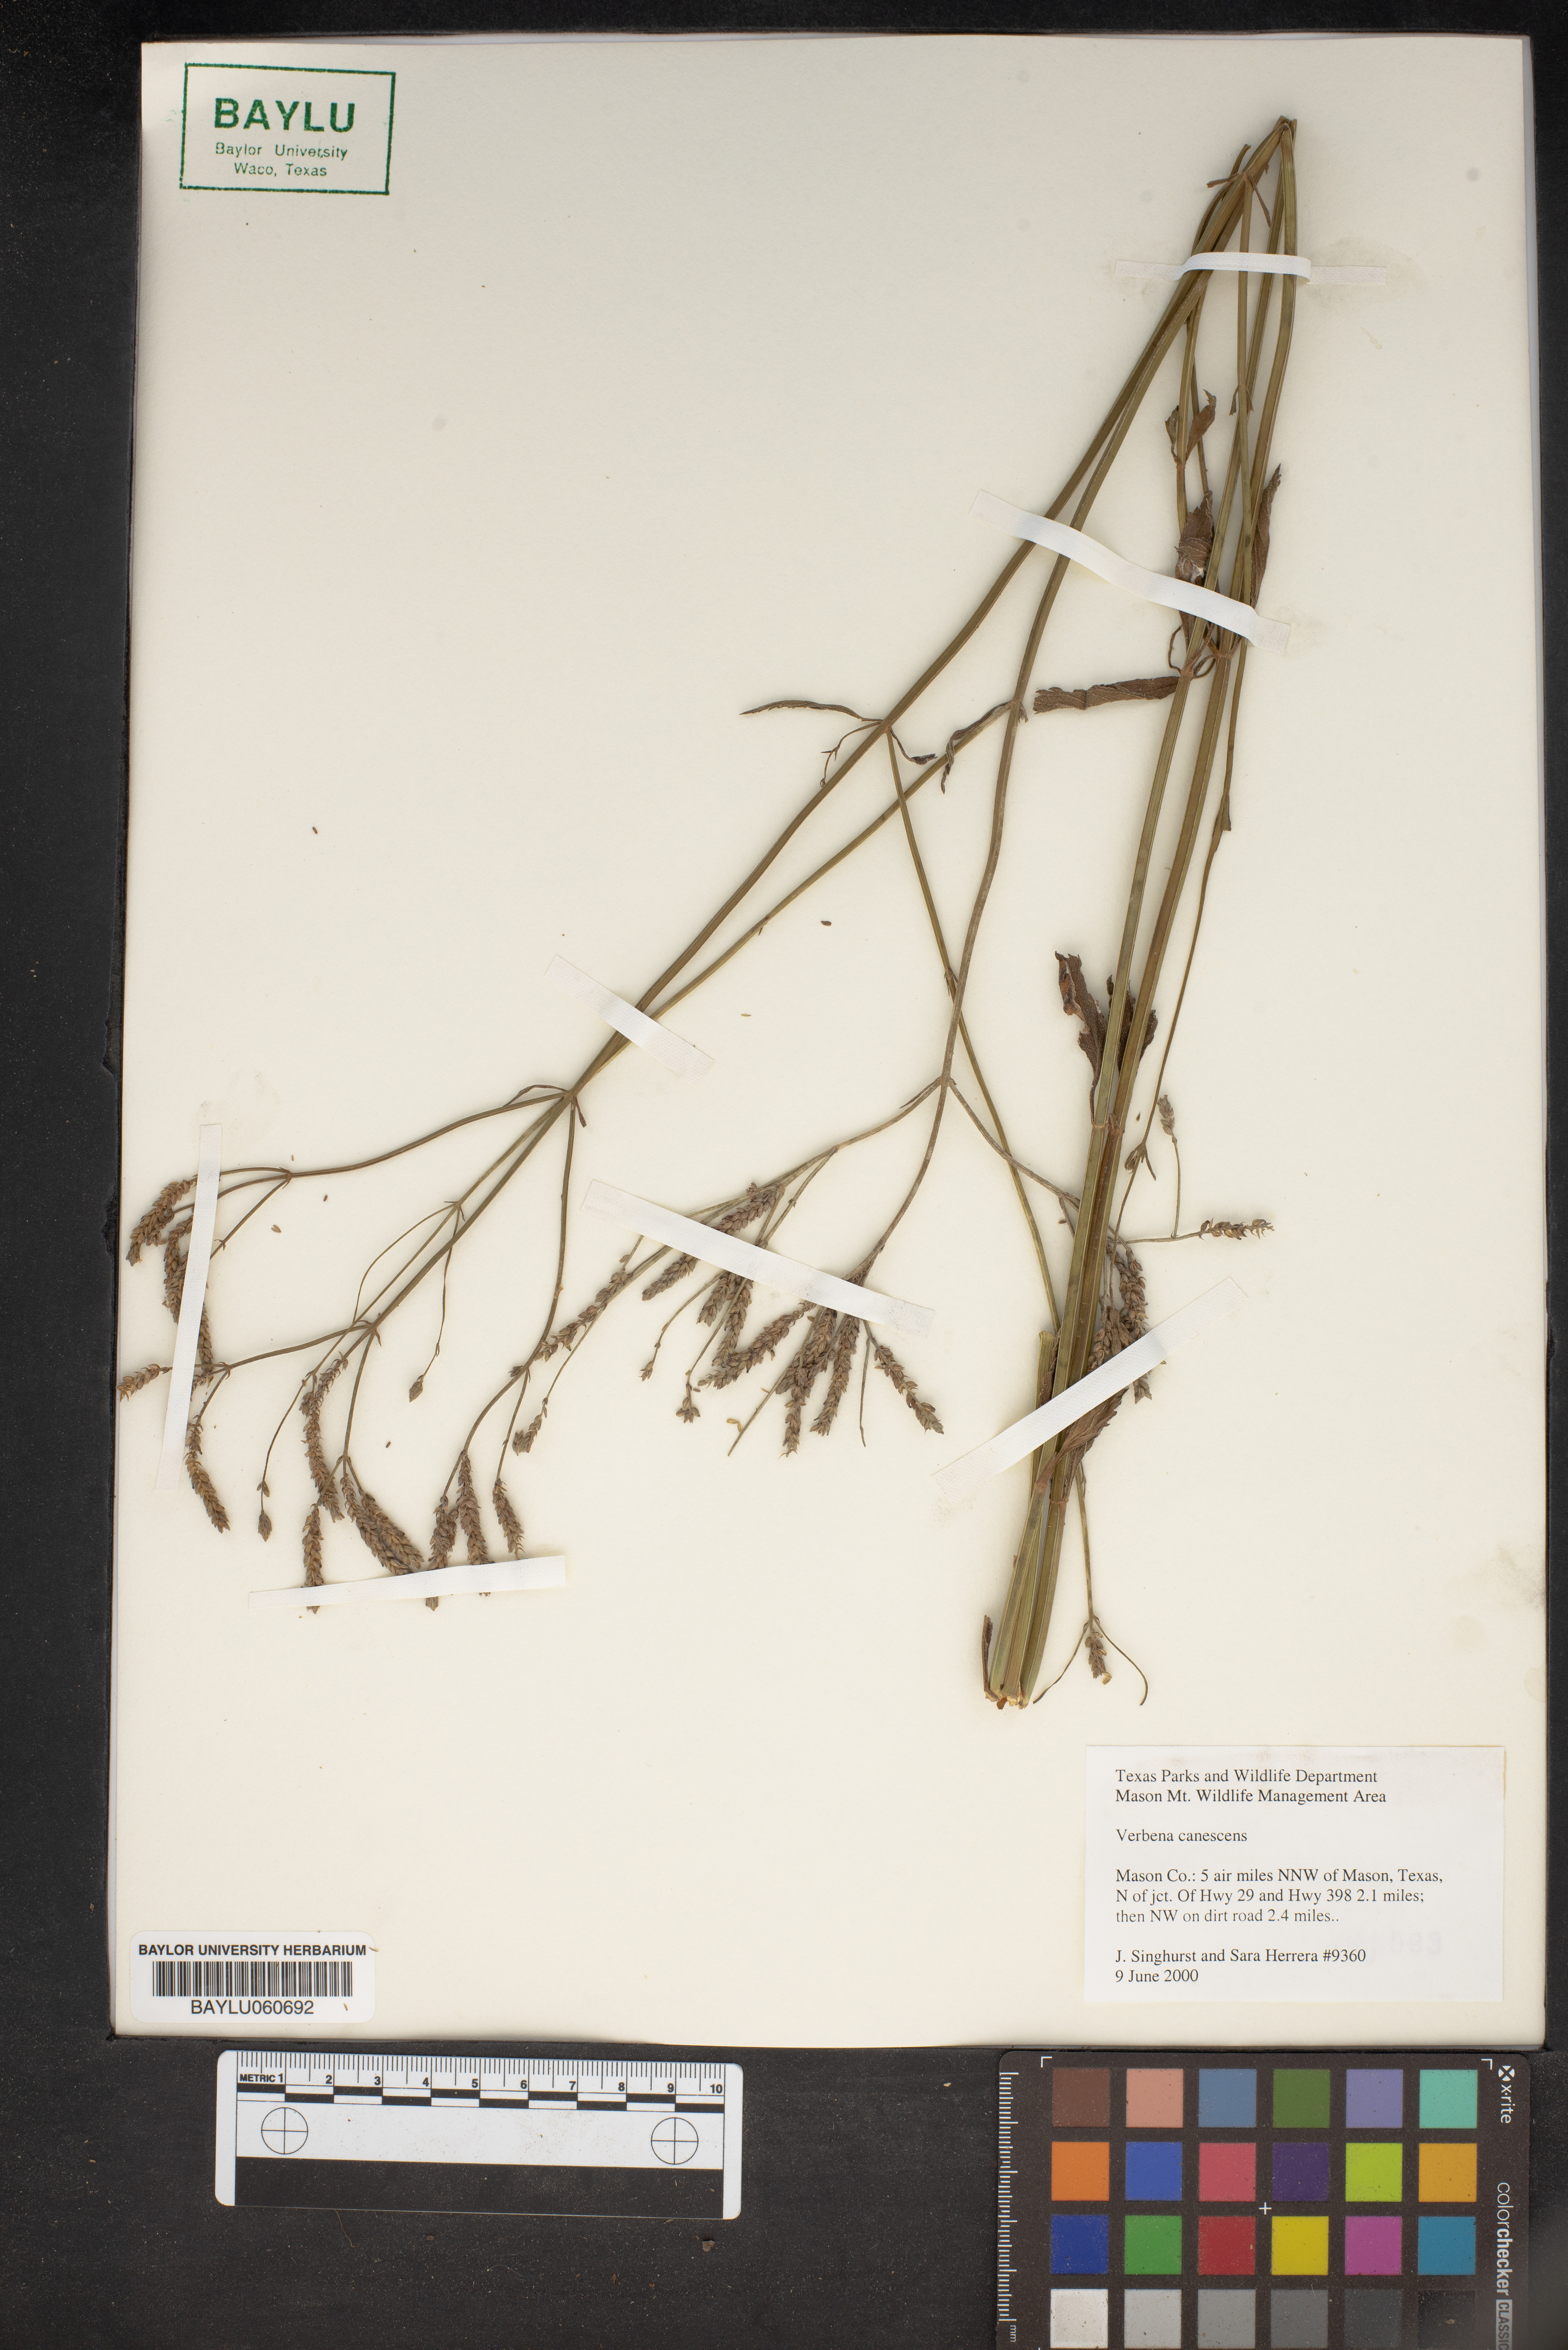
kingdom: Plantae
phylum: Tracheophyta
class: Magnoliopsida
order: Lamiales
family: Verbenaceae
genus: Verbena
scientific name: Verbena canescens
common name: Gray vervain
